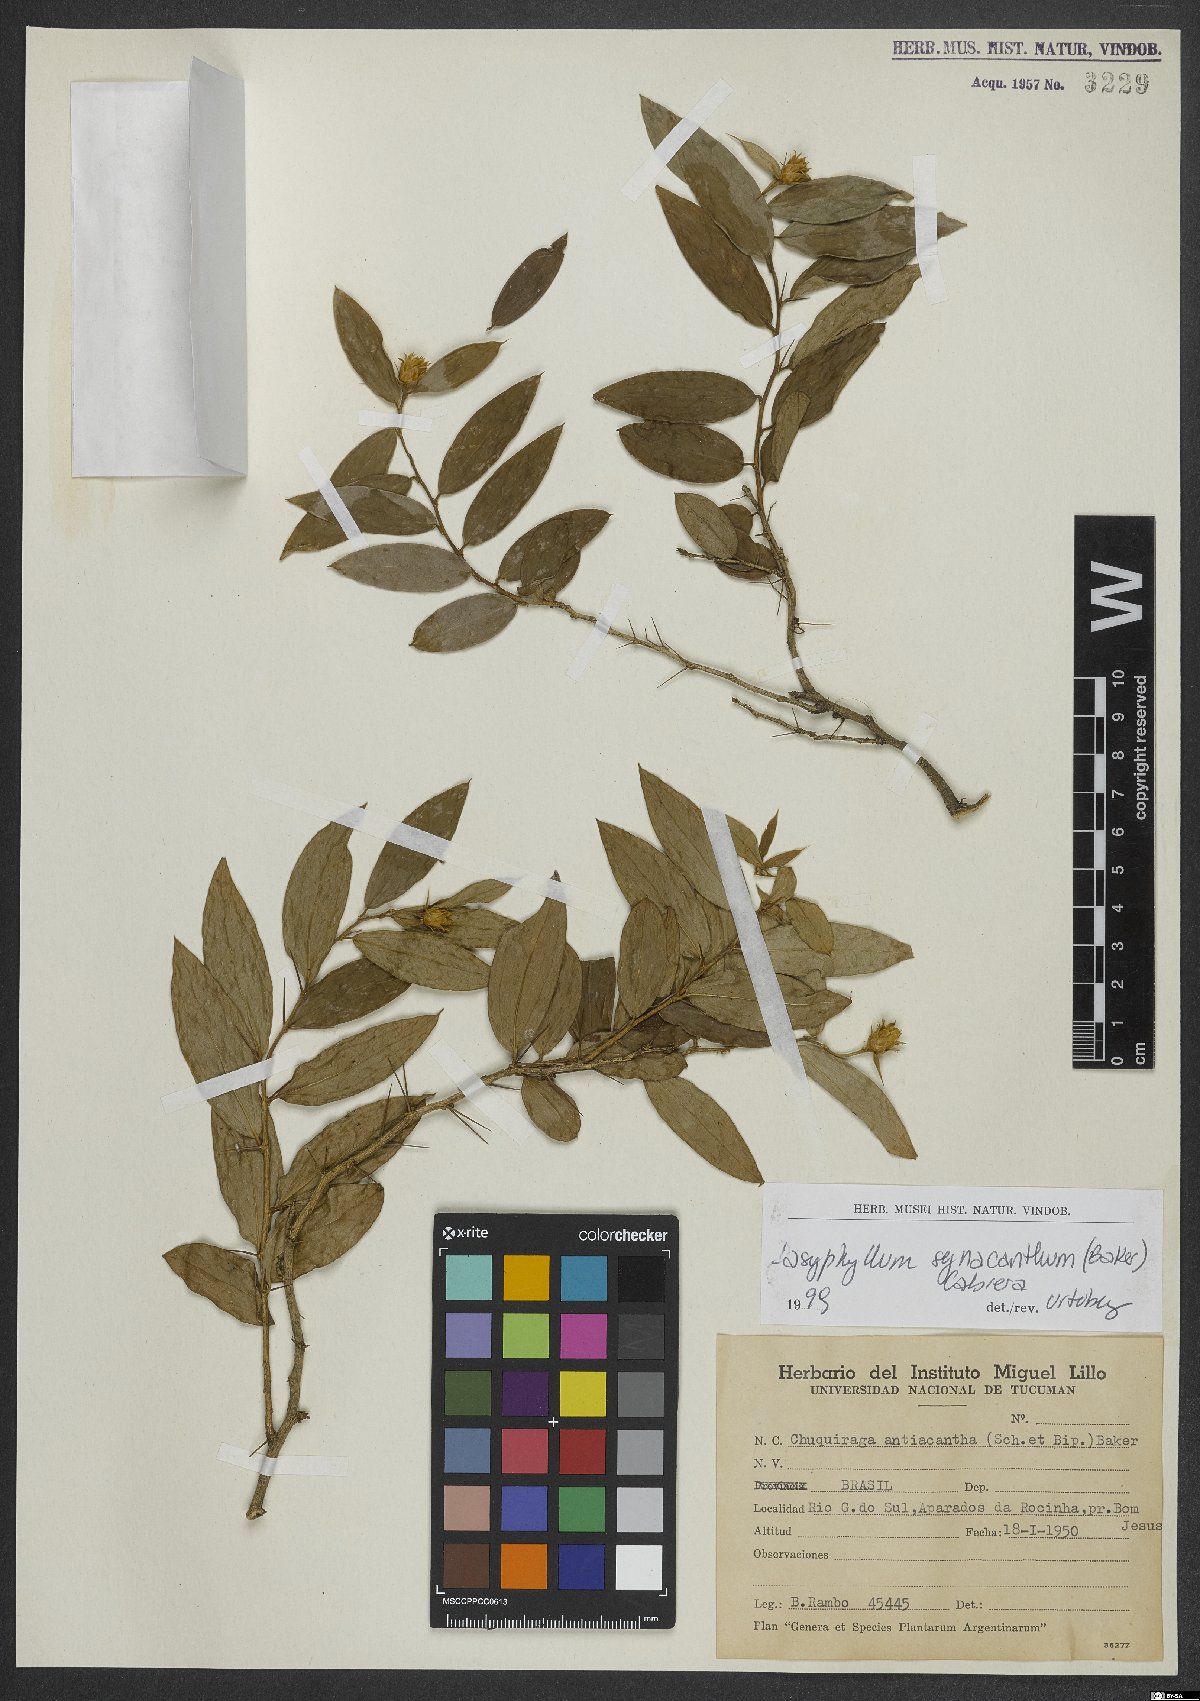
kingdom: Plantae
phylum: Tracheophyta
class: Magnoliopsida
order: Asterales
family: Asteraceae
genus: Dasyphyllum
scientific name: Dasyphyllum synacanthum
